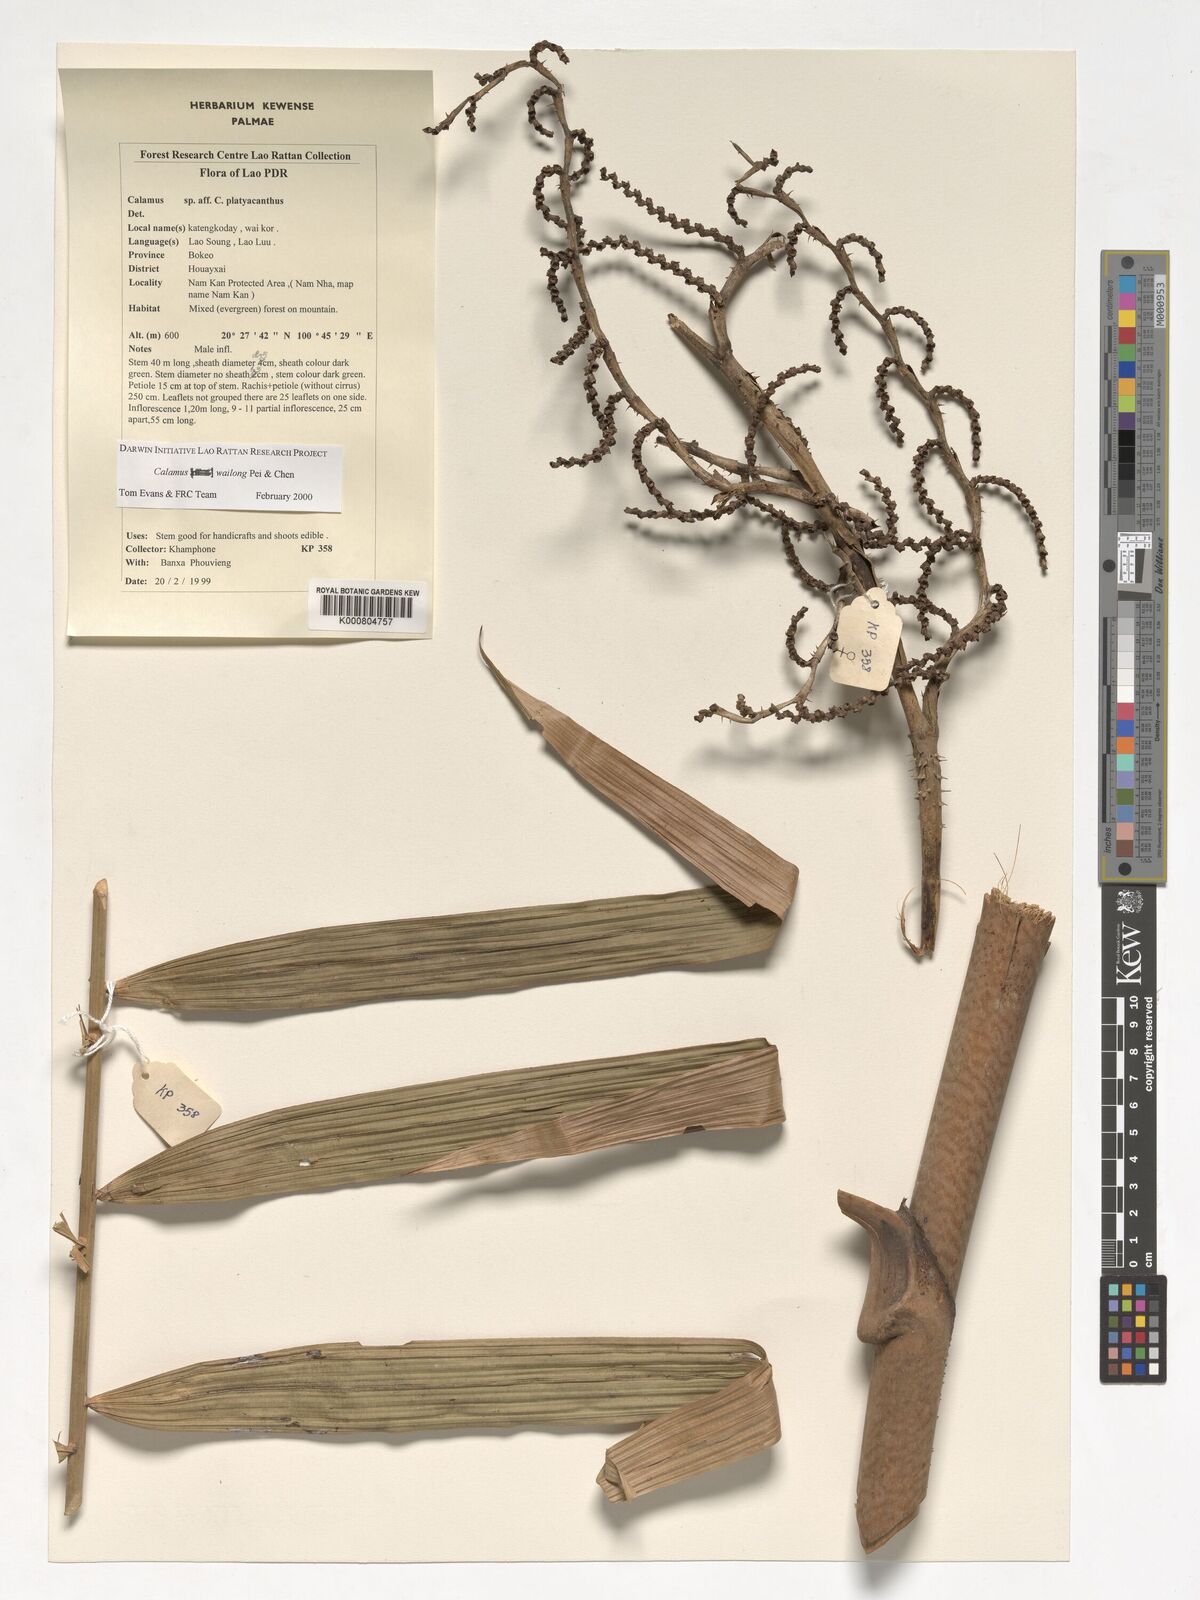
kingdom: Plantae
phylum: Tracheophyta
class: Liliopsida
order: Arecales
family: Arecaceae
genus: Calamus
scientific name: Calamus inermis
